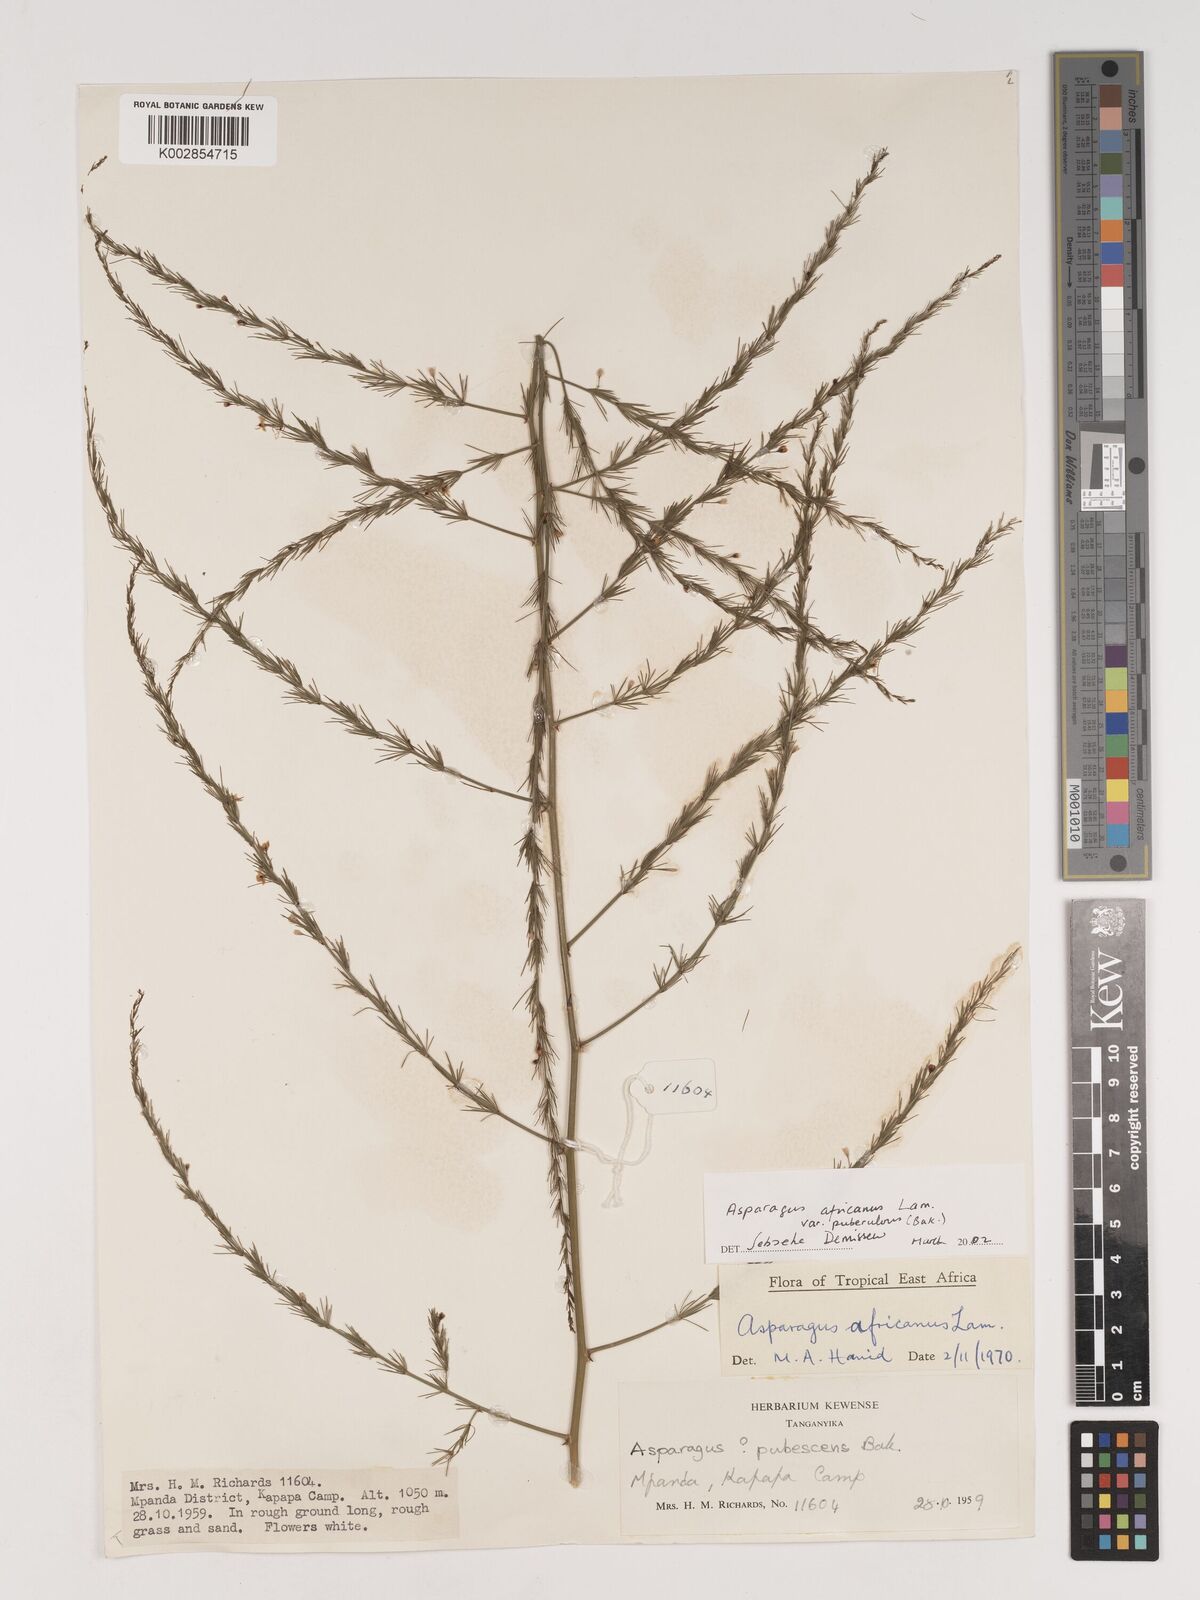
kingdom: Plantae
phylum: Tracheophyta
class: Liliopsida
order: Asparagales
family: Asparagaceae
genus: Asparagus
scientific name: Asparagus africanus
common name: Asparagus-fern
